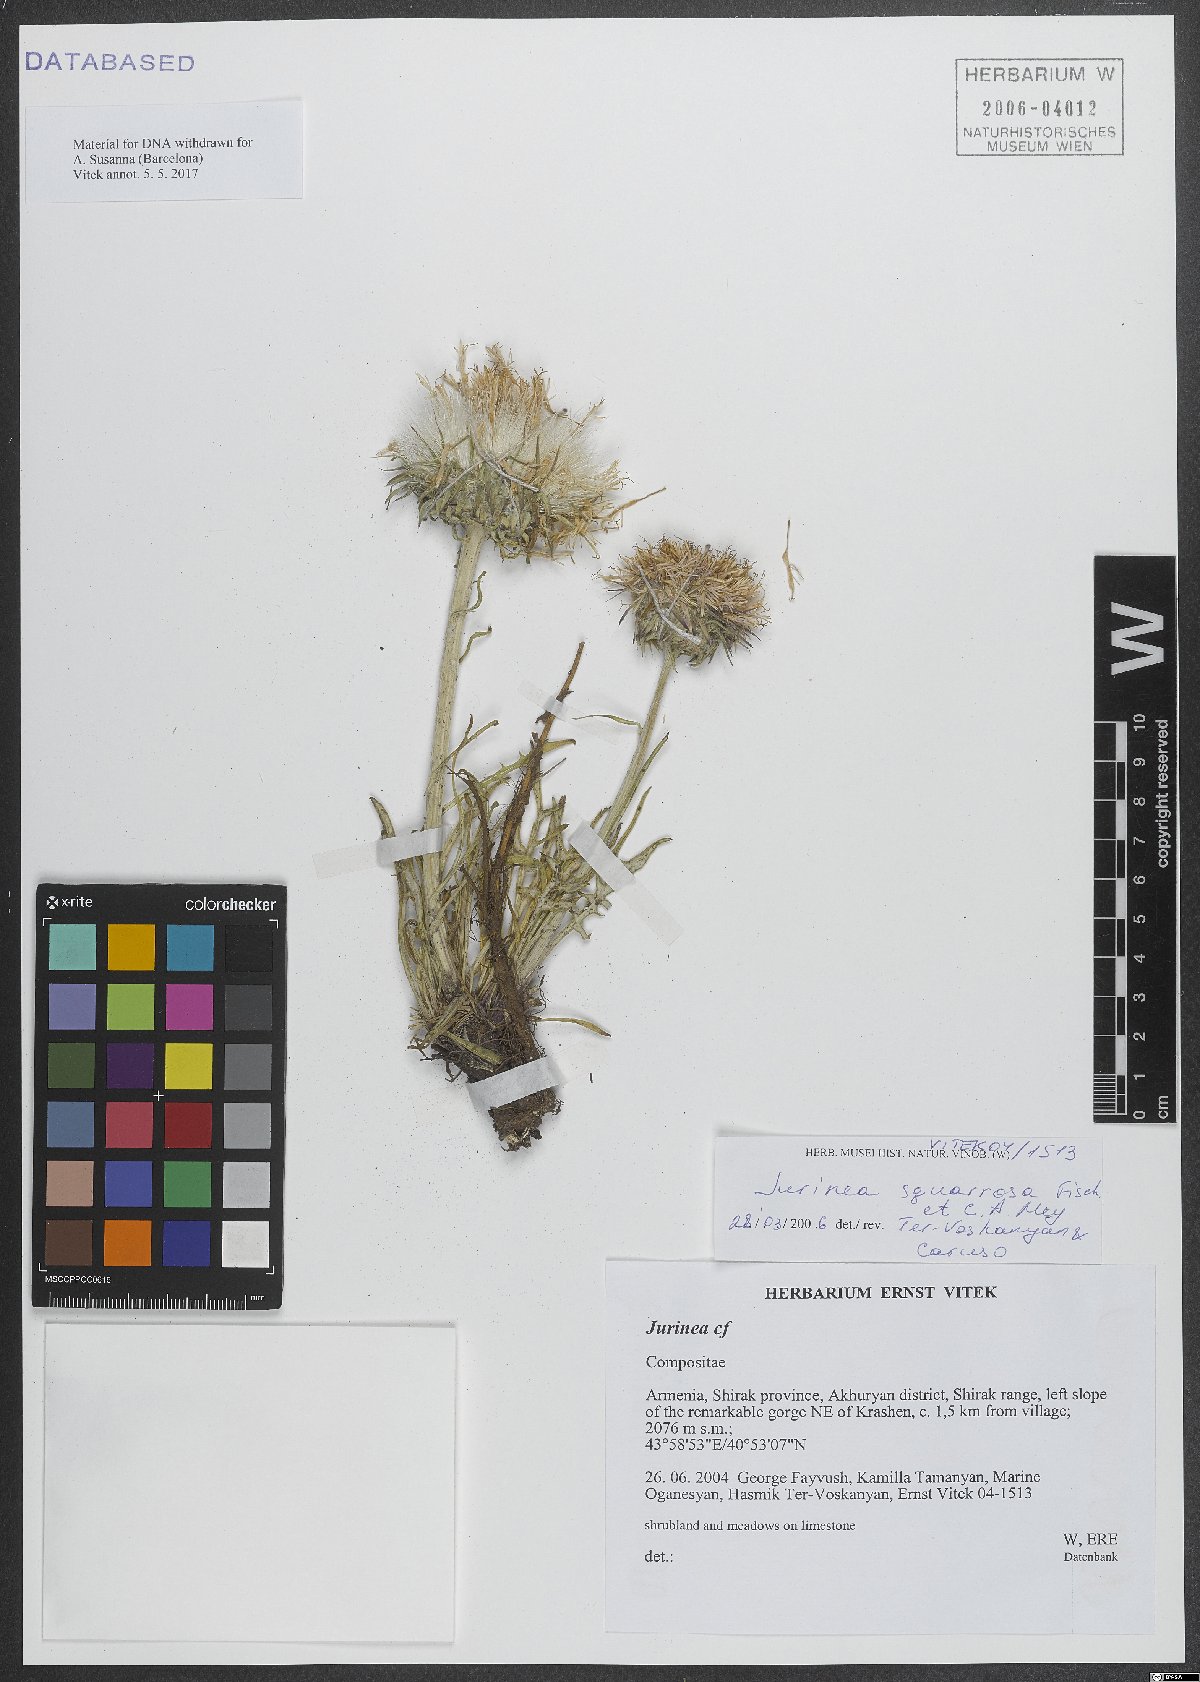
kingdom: Plantae
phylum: Tracheophyta
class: Magnoliopsida
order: Asterales
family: Asteraceae
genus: Jurinea
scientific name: Jurinea squarrosa
